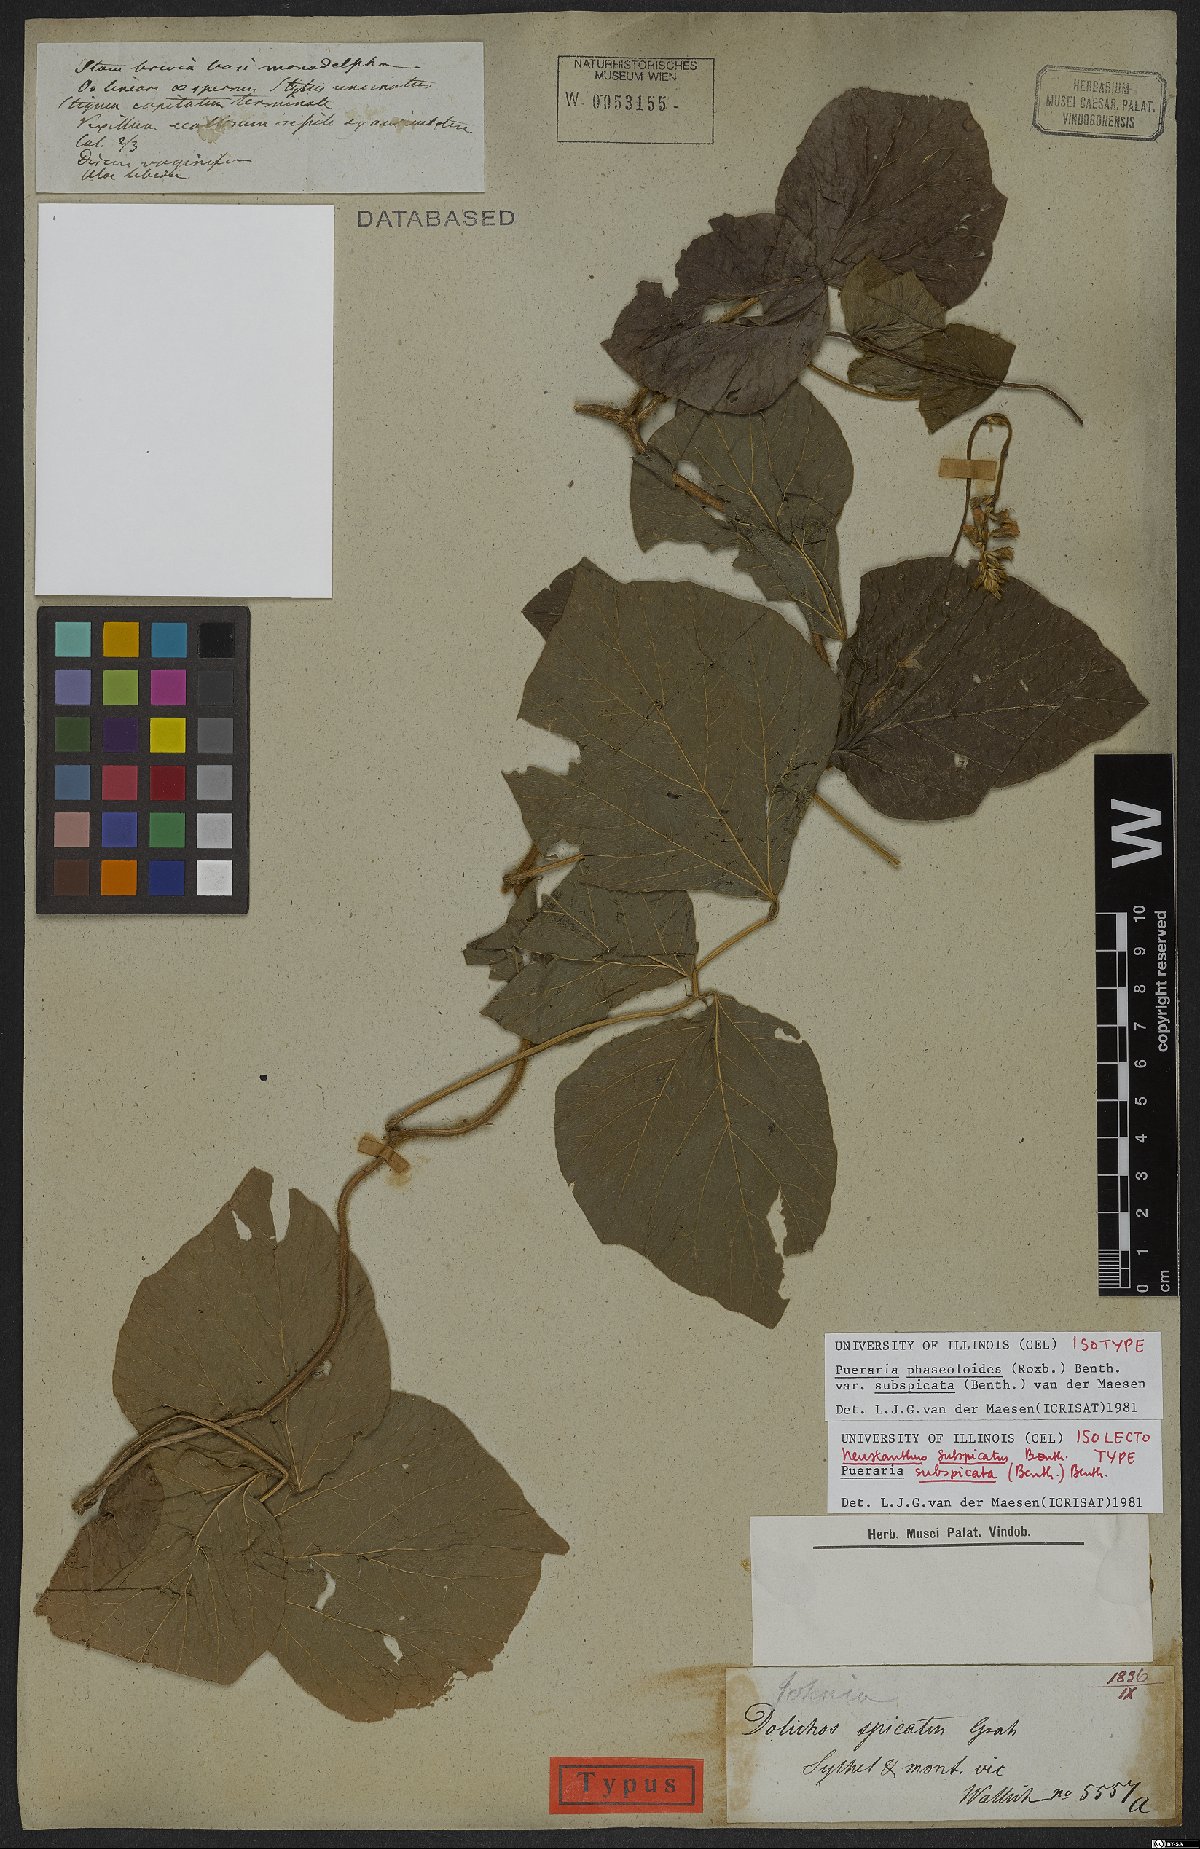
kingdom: Plantae
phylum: Tracheophyta
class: Magnoliopsida
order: Fabales
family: Fabaceae
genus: Neustanthus
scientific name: Neustanthus phaseoloides
